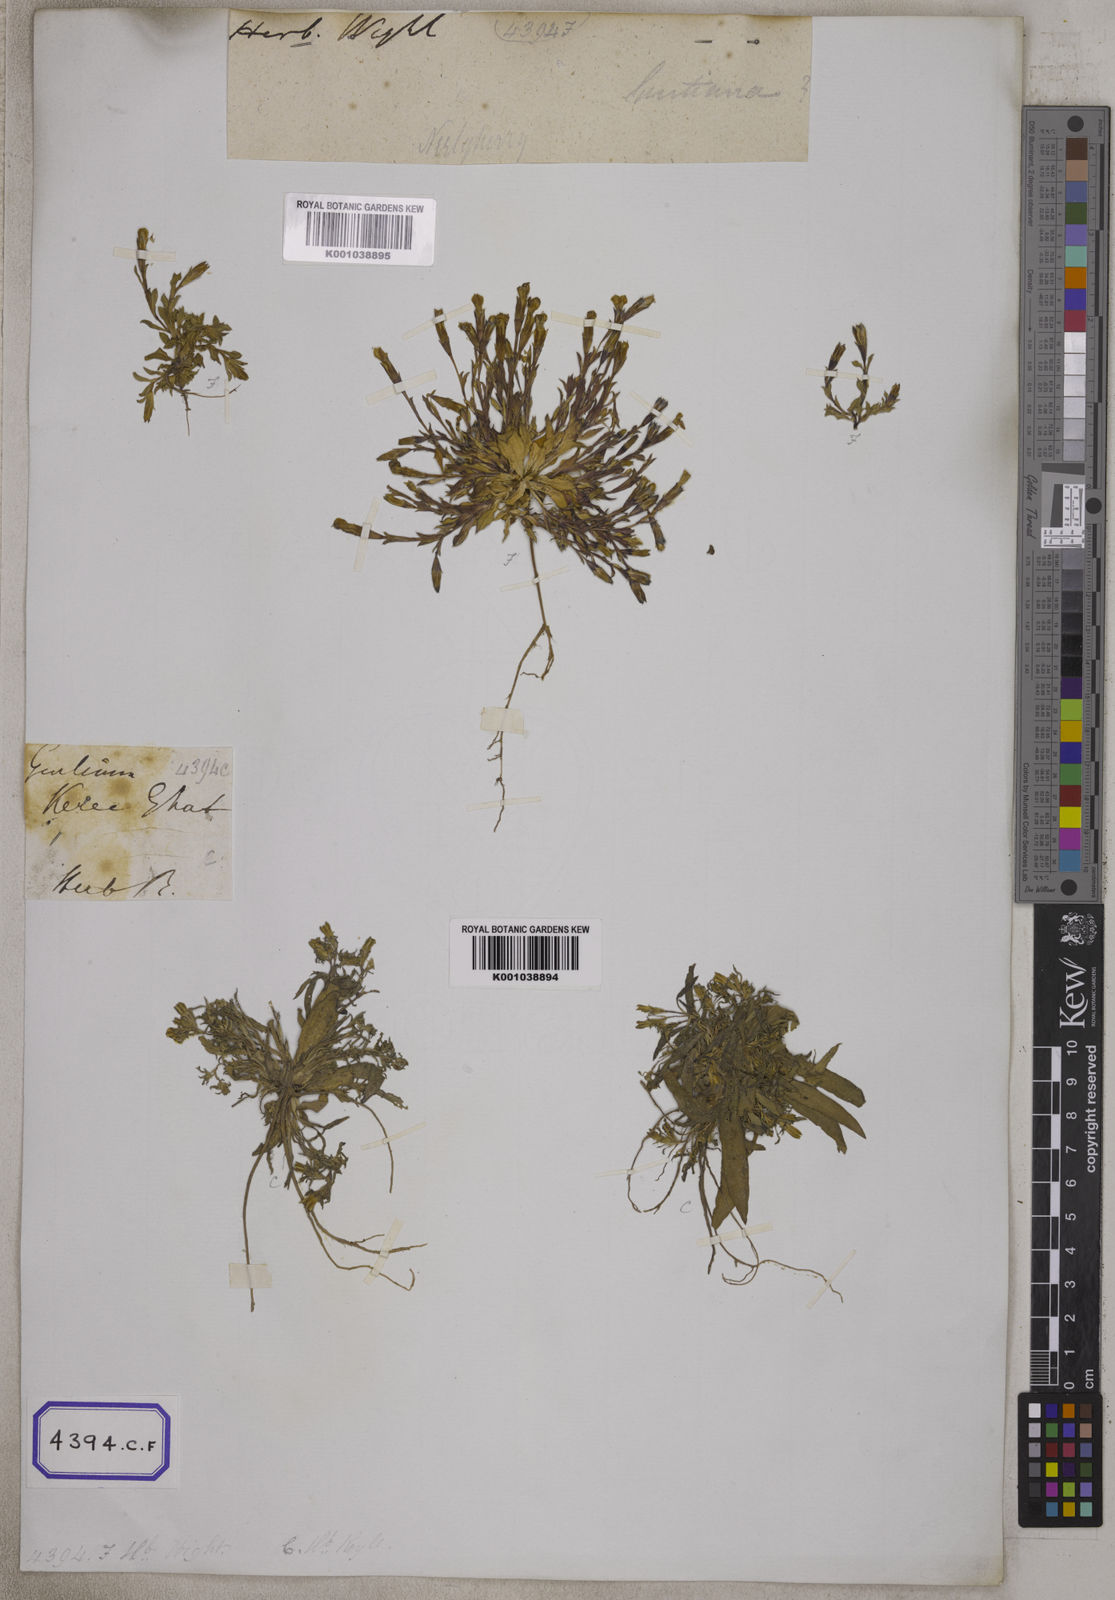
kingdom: Plantae
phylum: Tracheophyta
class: Magnoliopsida
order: Gentianales
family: Gentianaceae
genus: Gentiana
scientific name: Gentiana pedicellata
